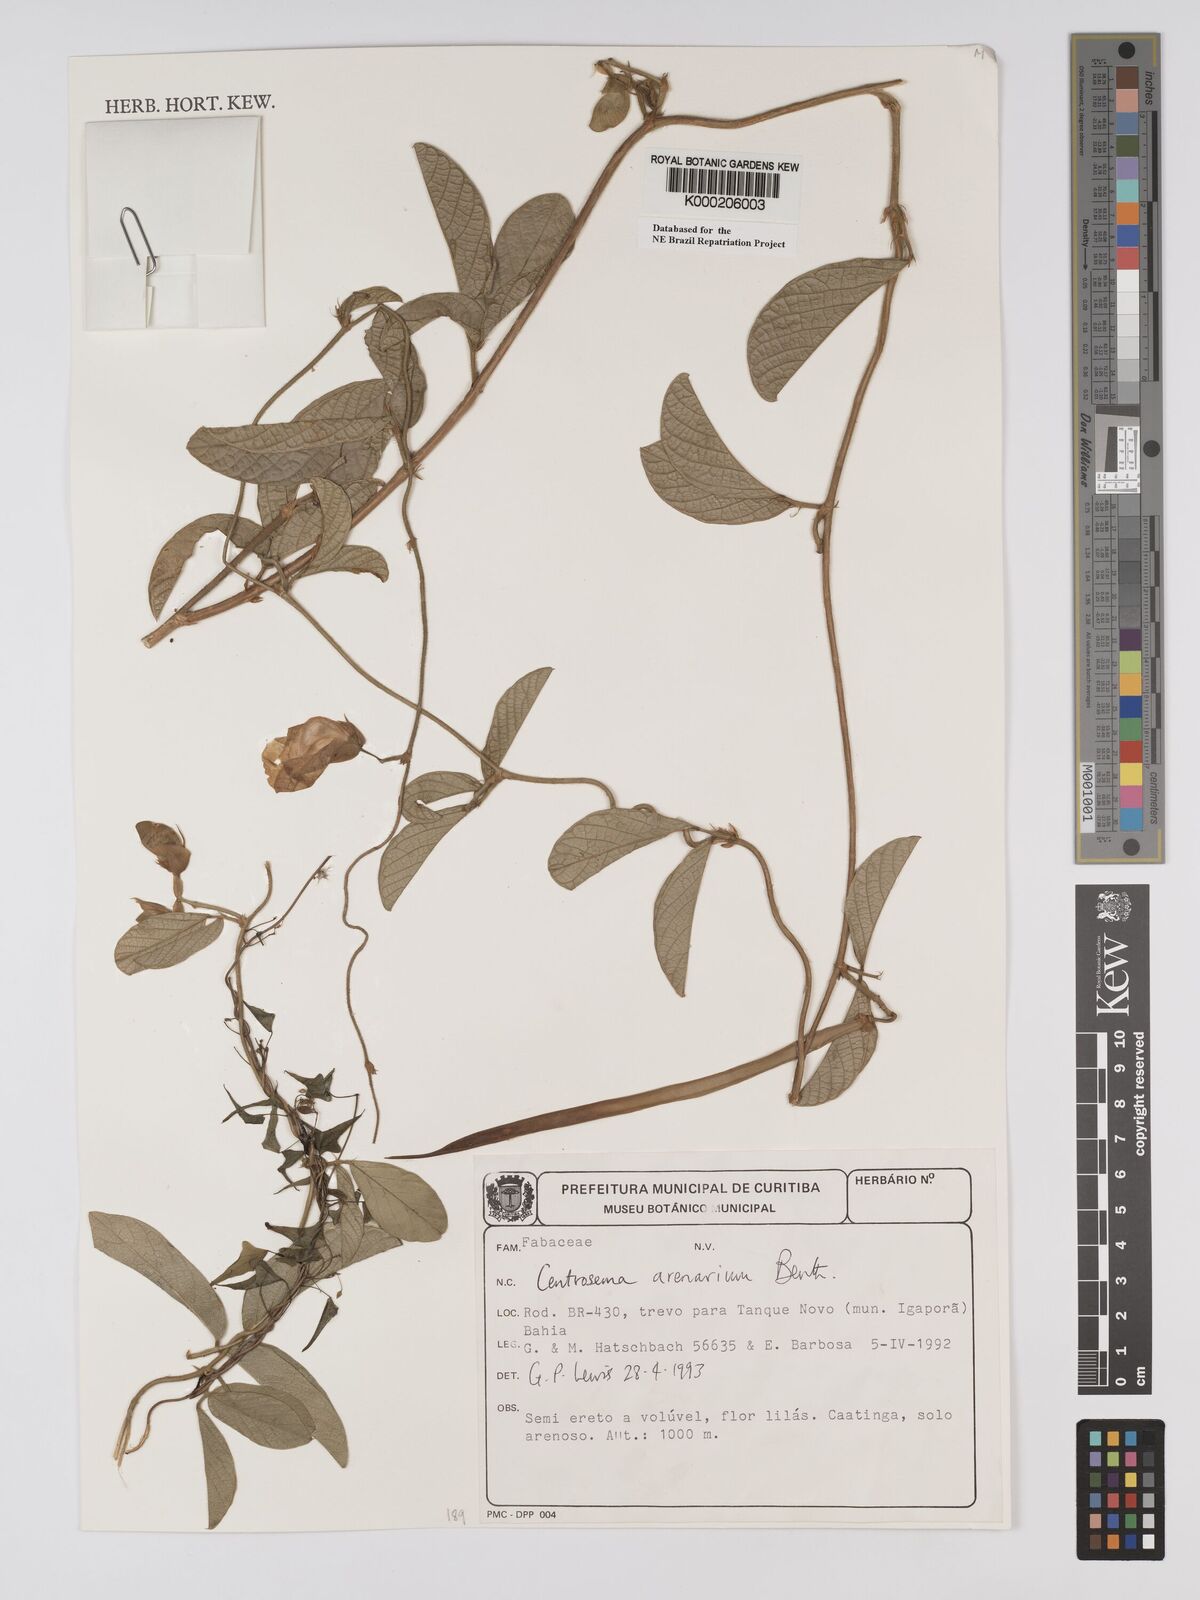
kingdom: Plantae
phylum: Tracheophyta
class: Magnoliopsida
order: Fabales
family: Fabaceae
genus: Centrosema
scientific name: Centrosema arenarium
